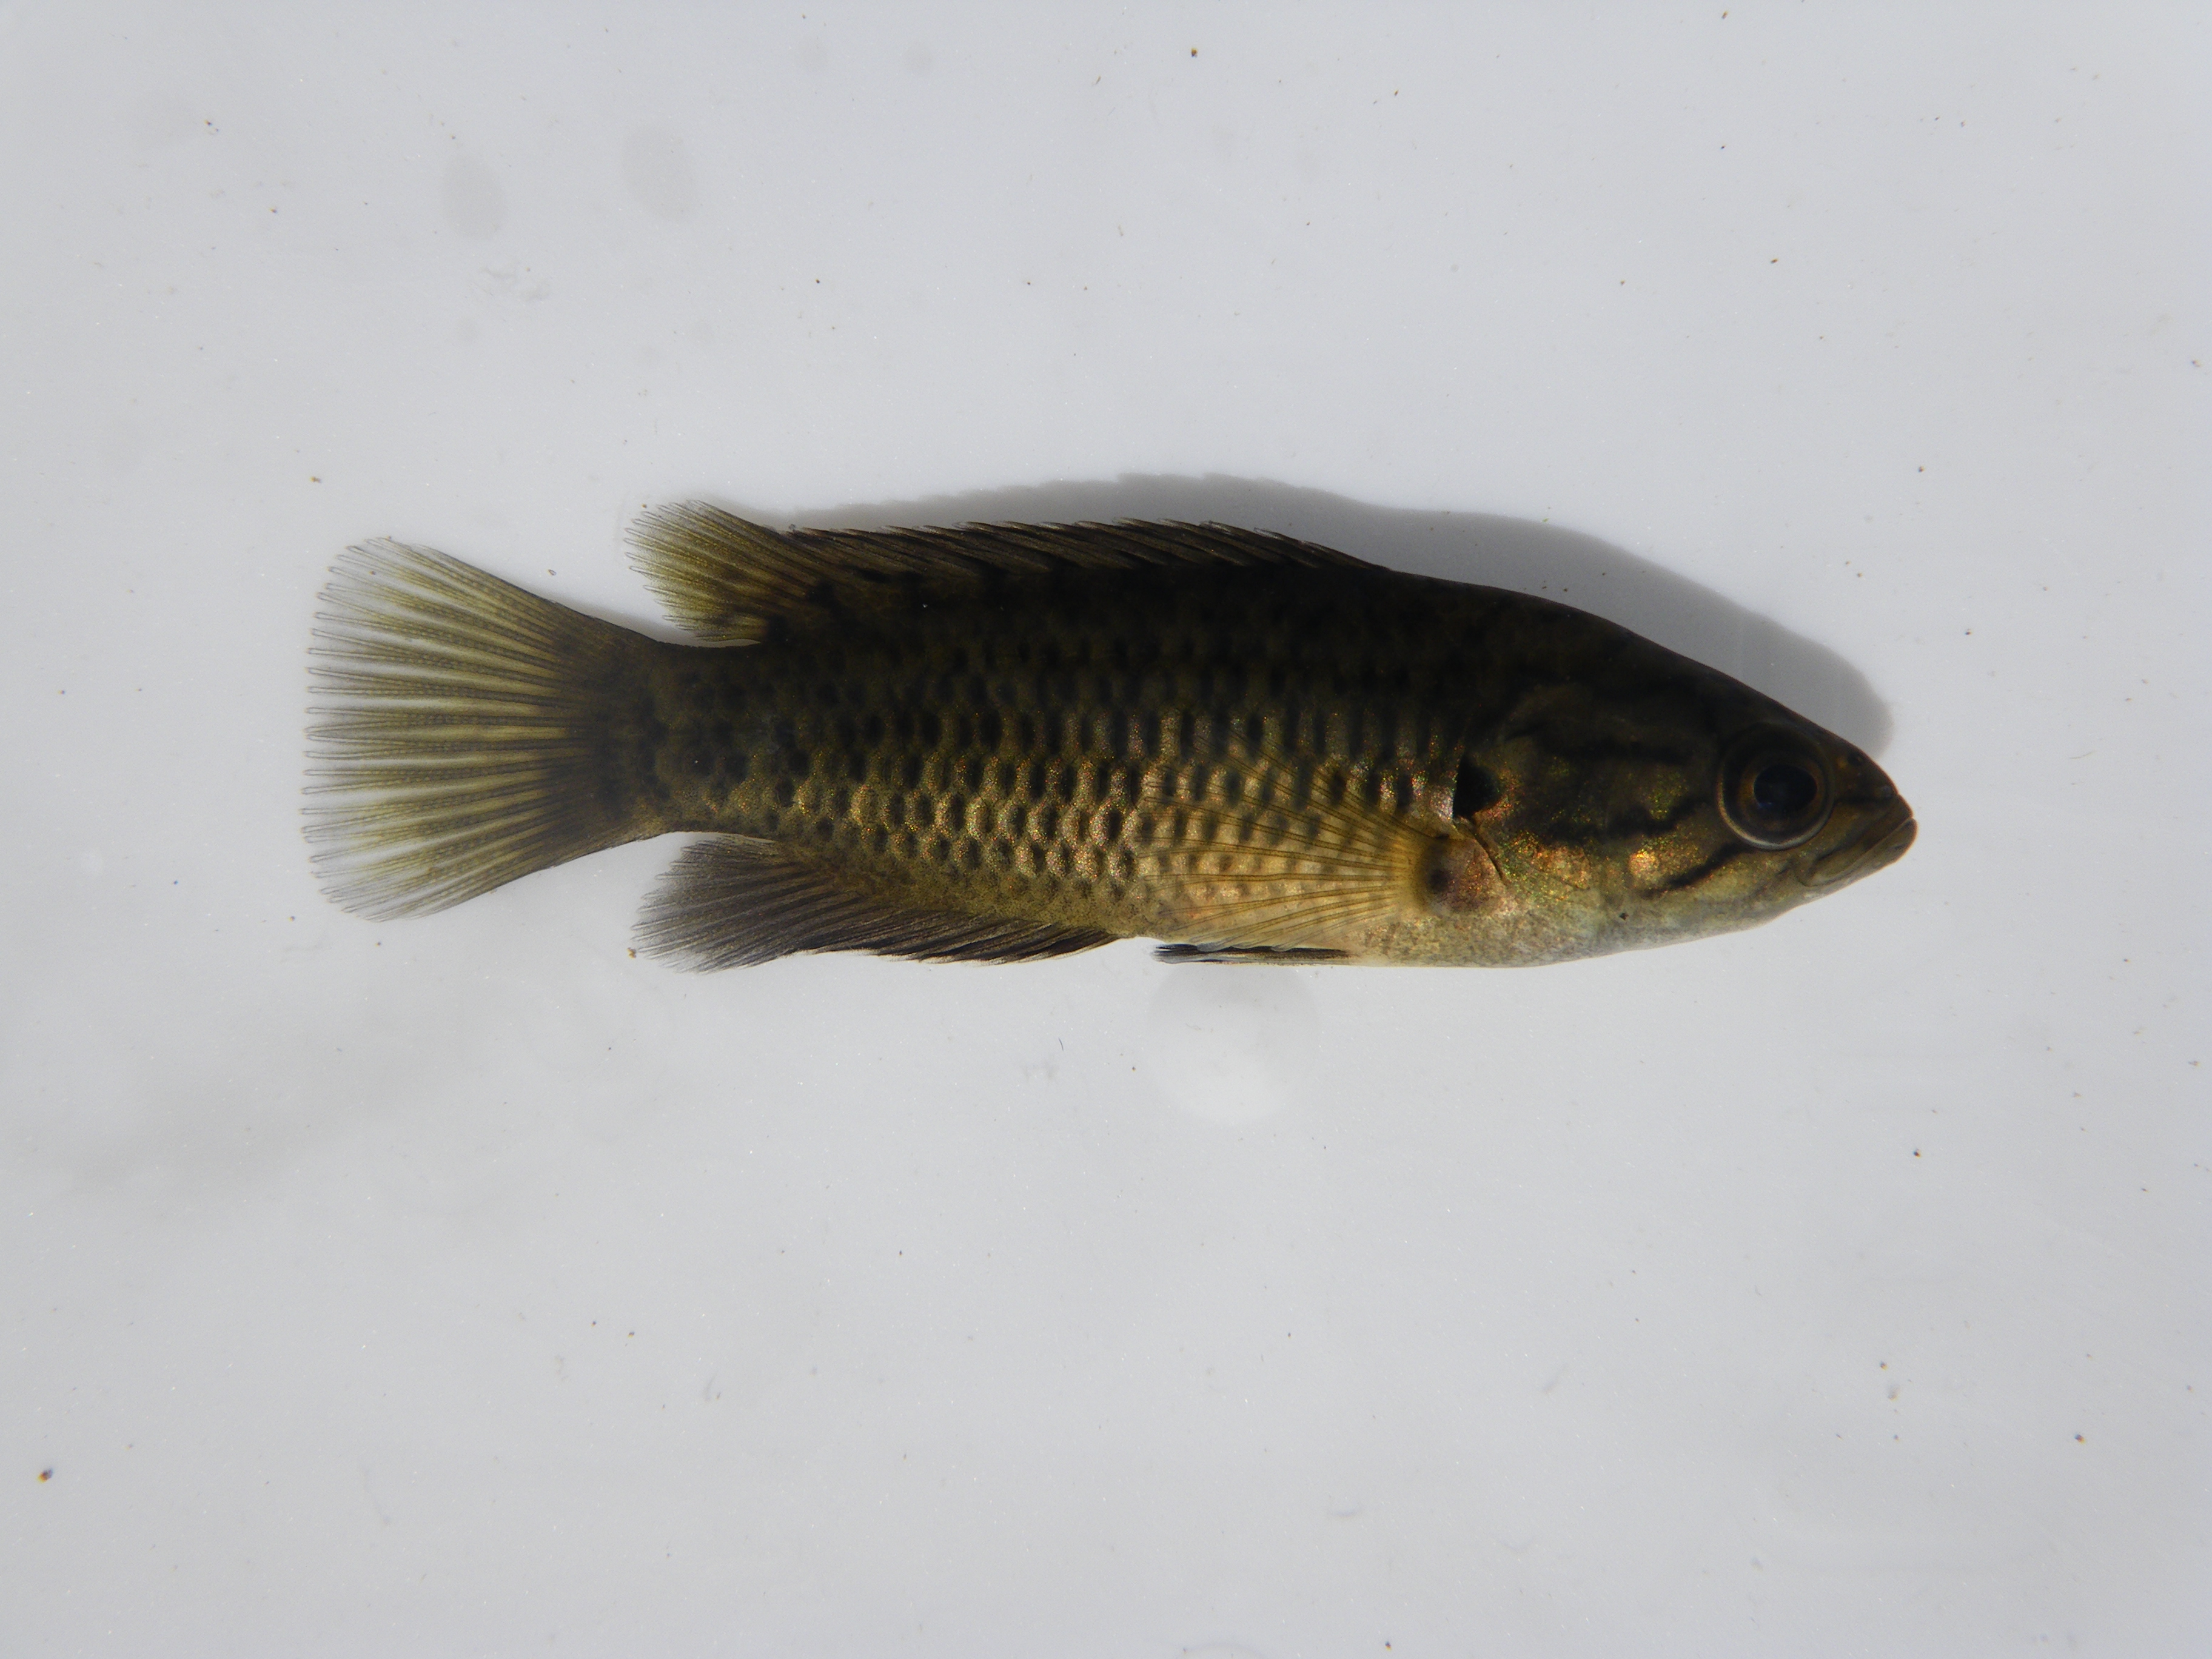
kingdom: Animalia
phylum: Chordata
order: Perciformes
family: Anabantidae
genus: Sandelia
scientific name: Sandelia capensis
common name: Cape kurper
